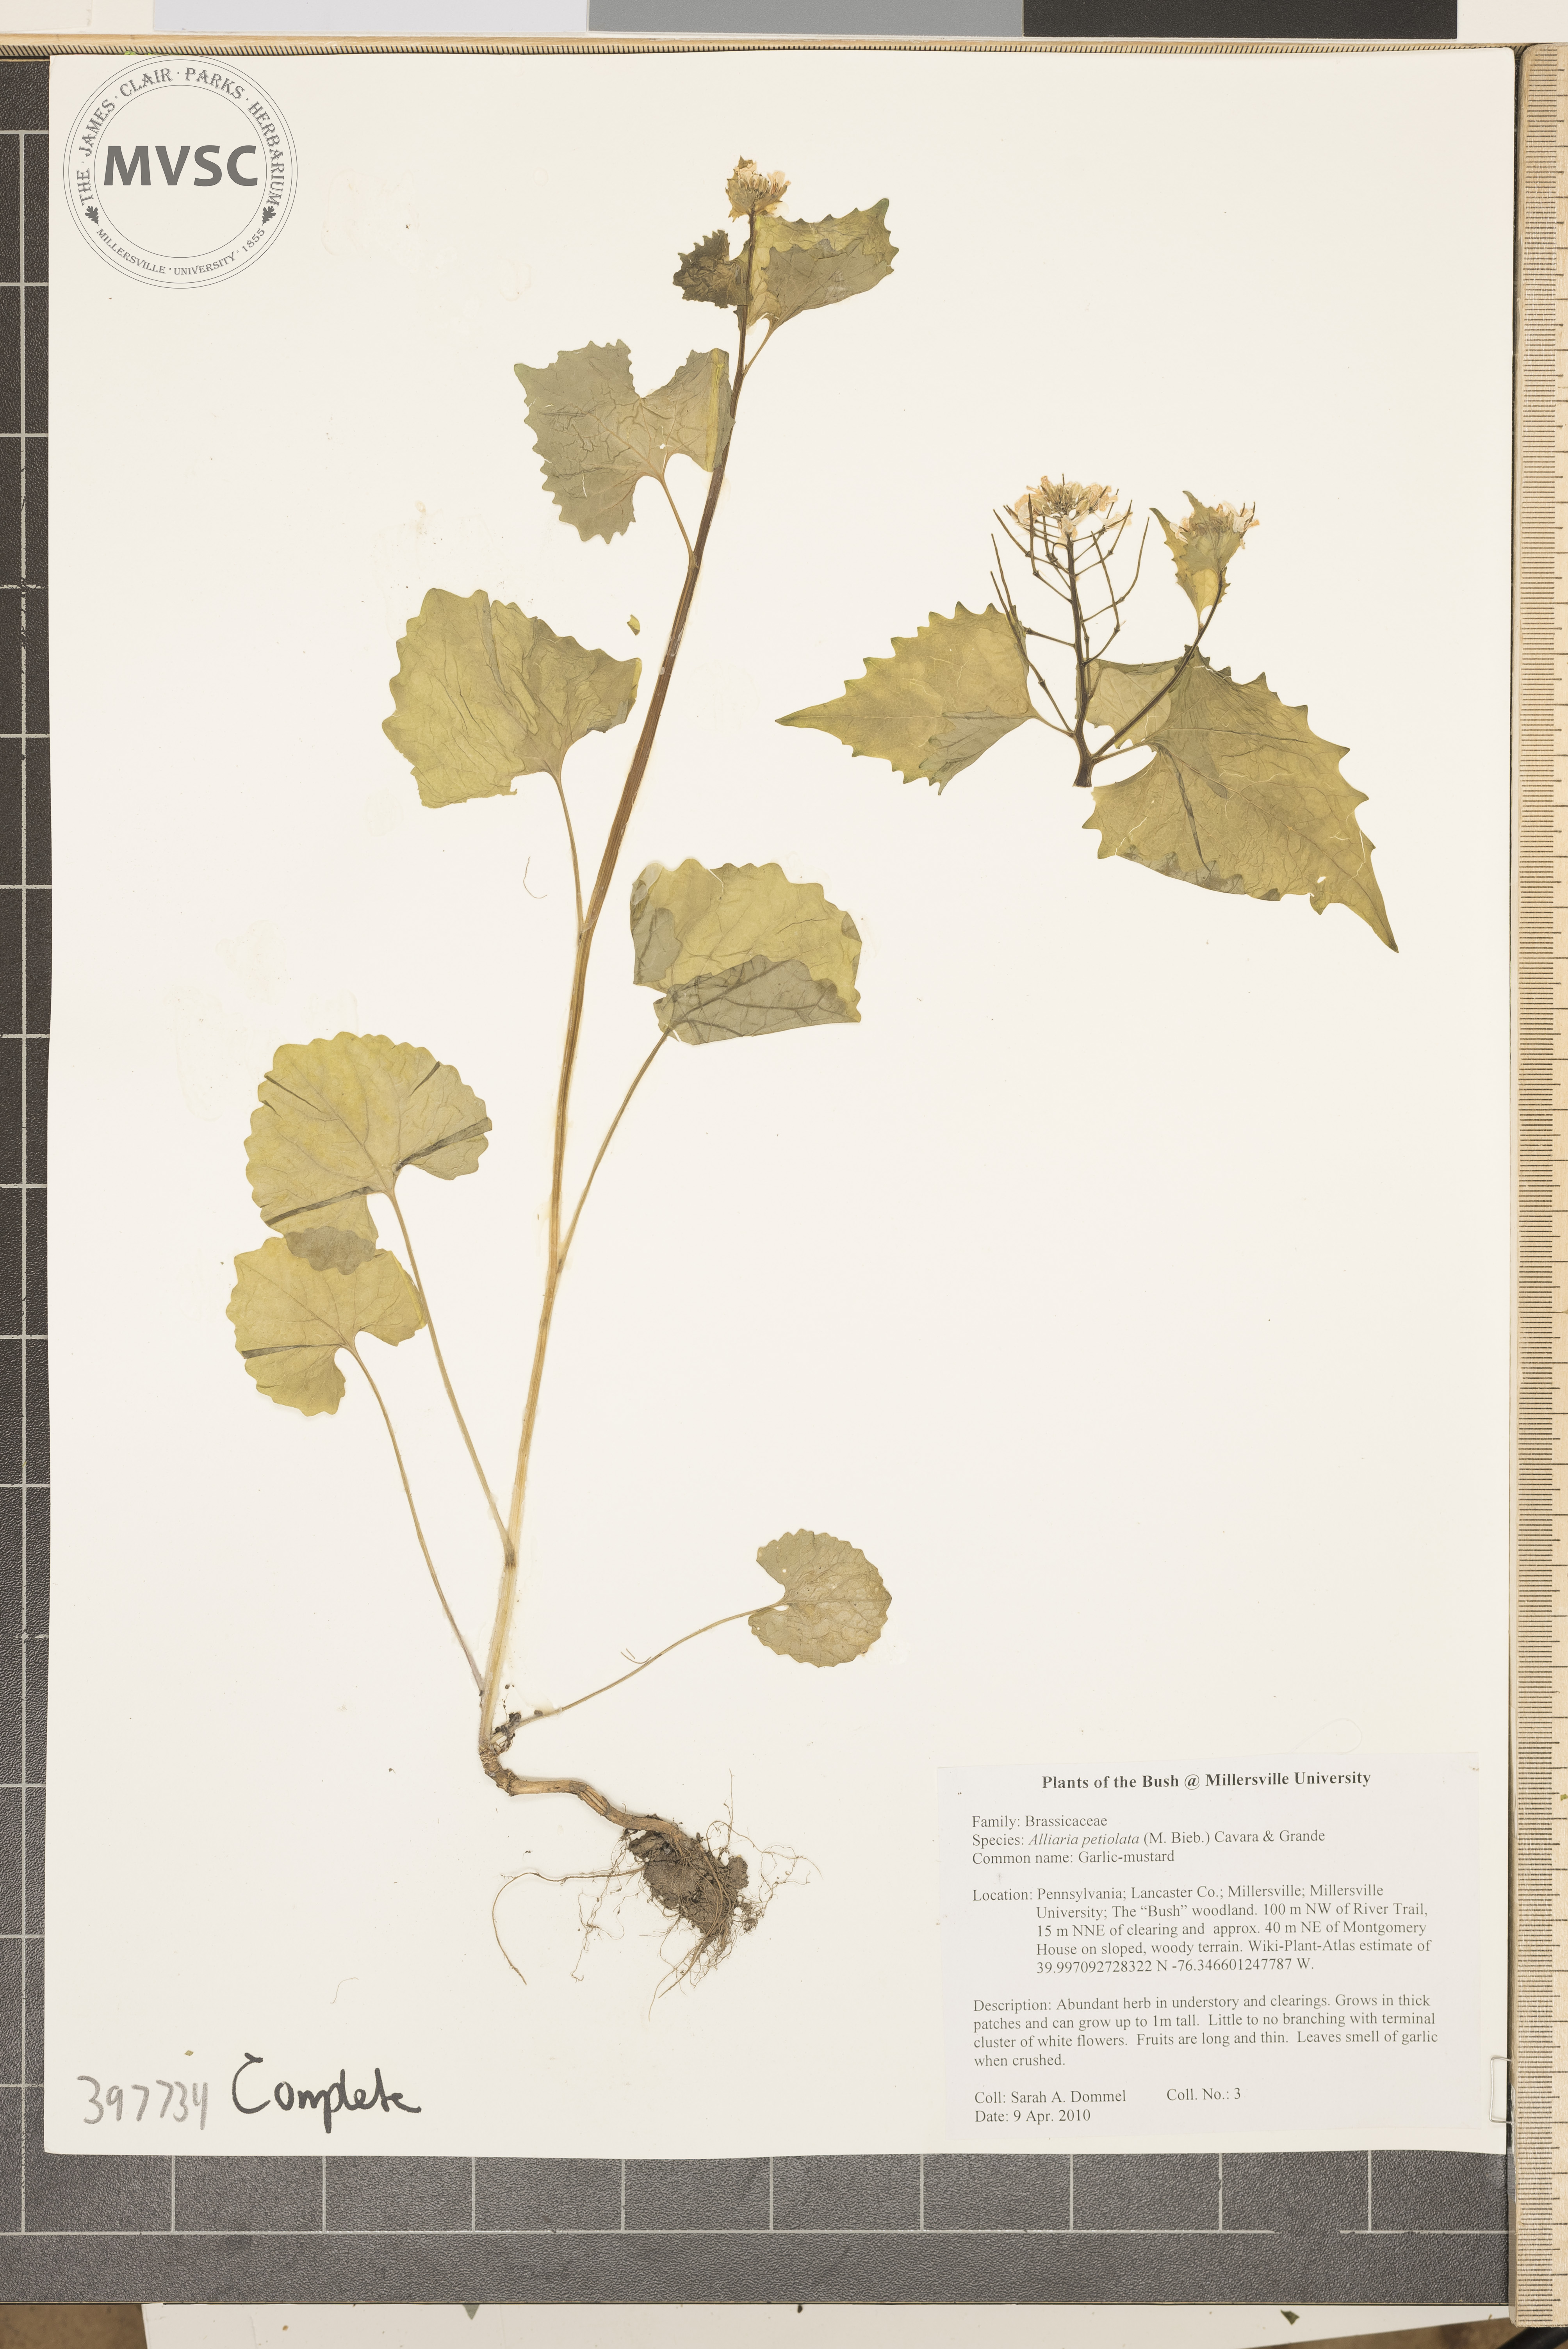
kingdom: Plantae
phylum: Tracheophyta
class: Magnoliopsida
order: Brassicales
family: Brassicaceae
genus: Alliaria
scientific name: Alliaria petiolata
